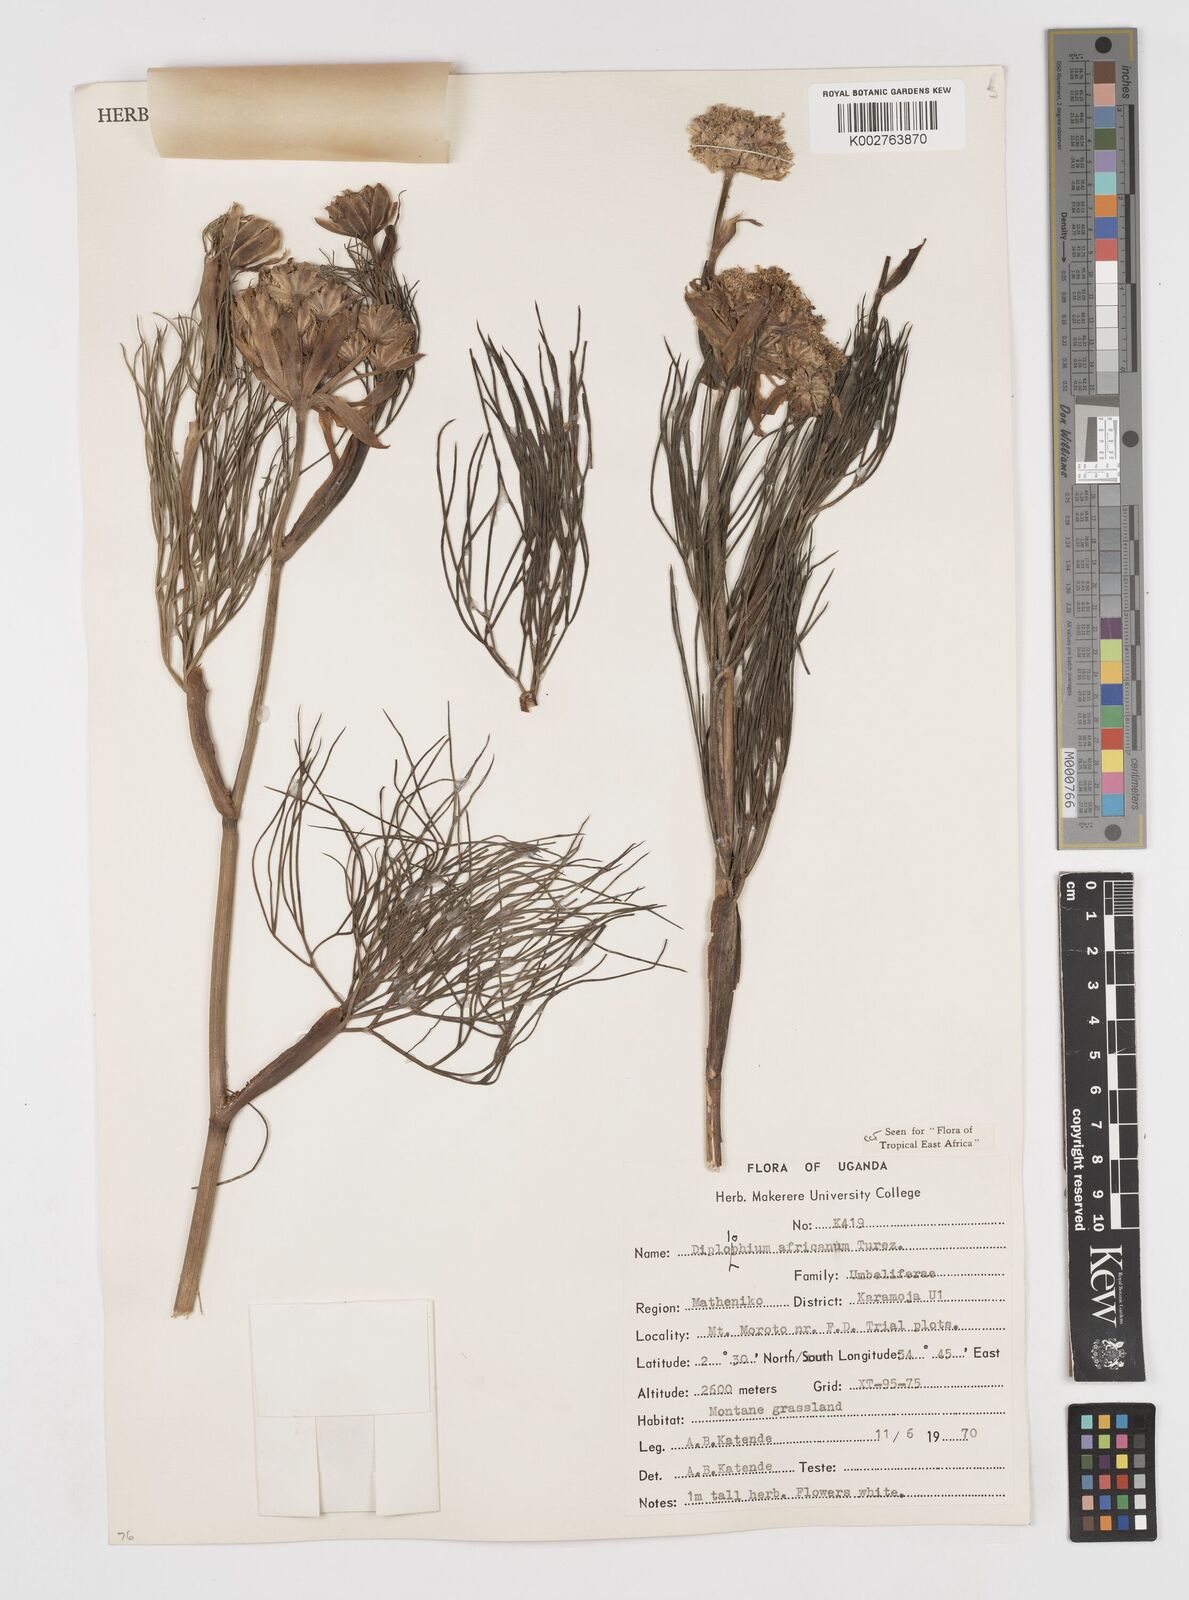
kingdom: Plantae
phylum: Tracheophyta
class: Magnoliopsida
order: Apiales
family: Apiaceae
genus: Diplolophium
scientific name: Diplolophium africanum
